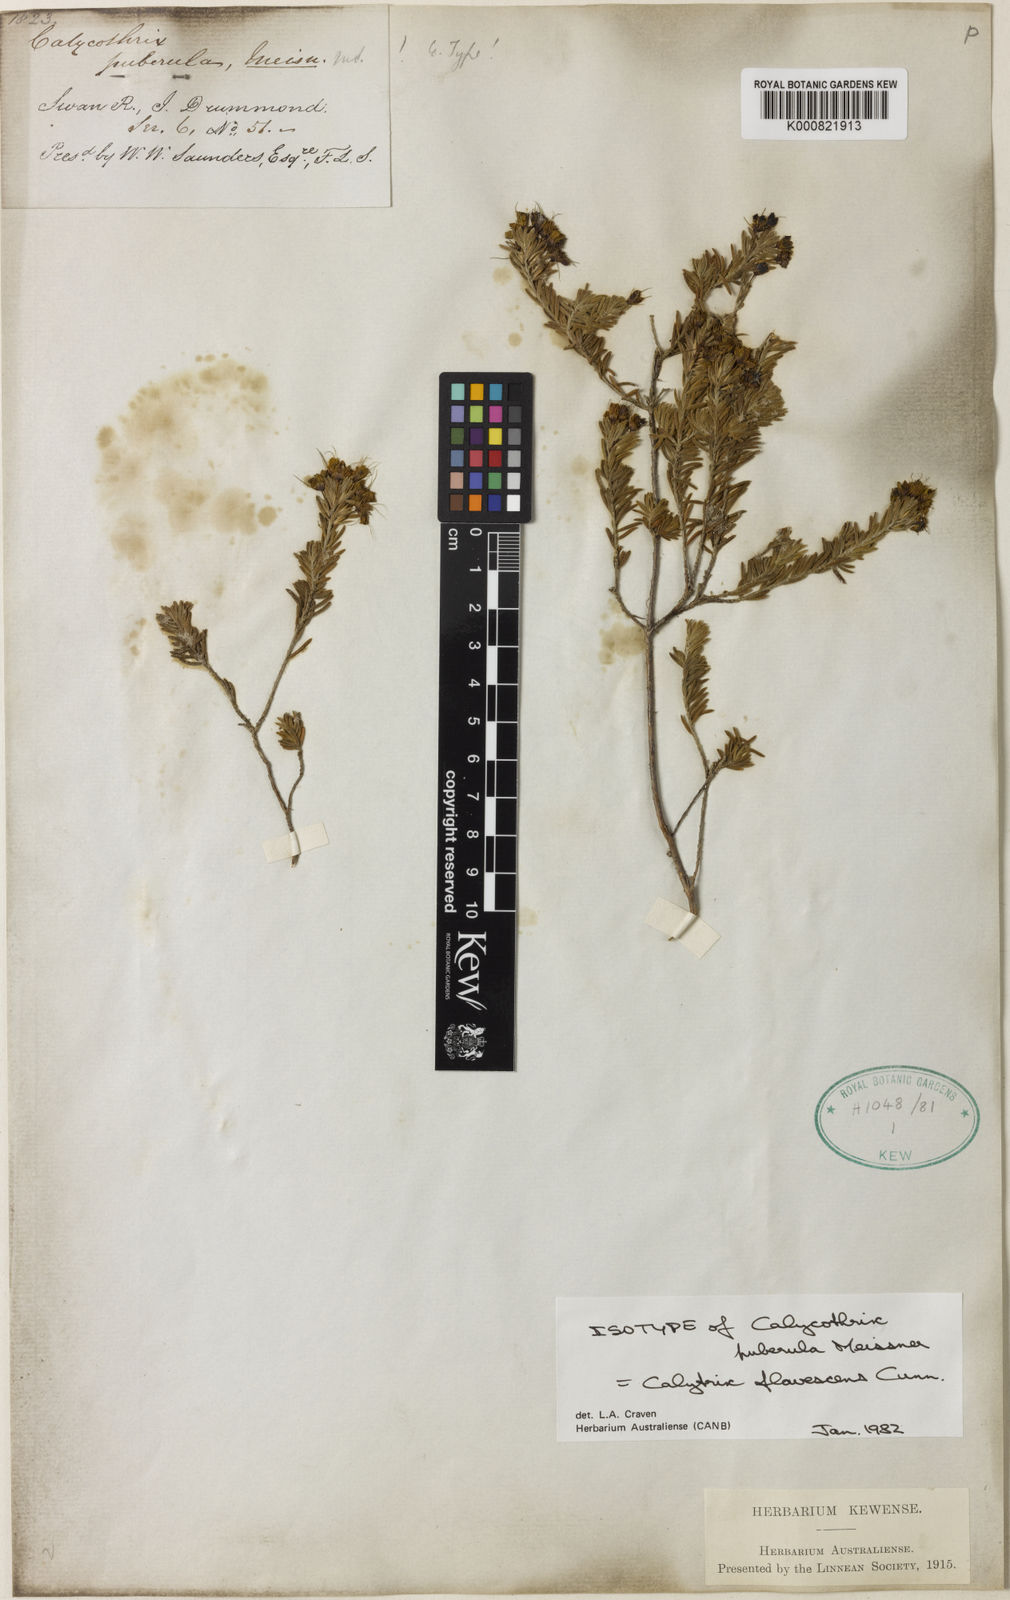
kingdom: Plantae
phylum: Tracheophyta
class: Magnoliopsida
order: Myrtales
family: Myrtaceae
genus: Calytrix
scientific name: Calytrix flavescens
